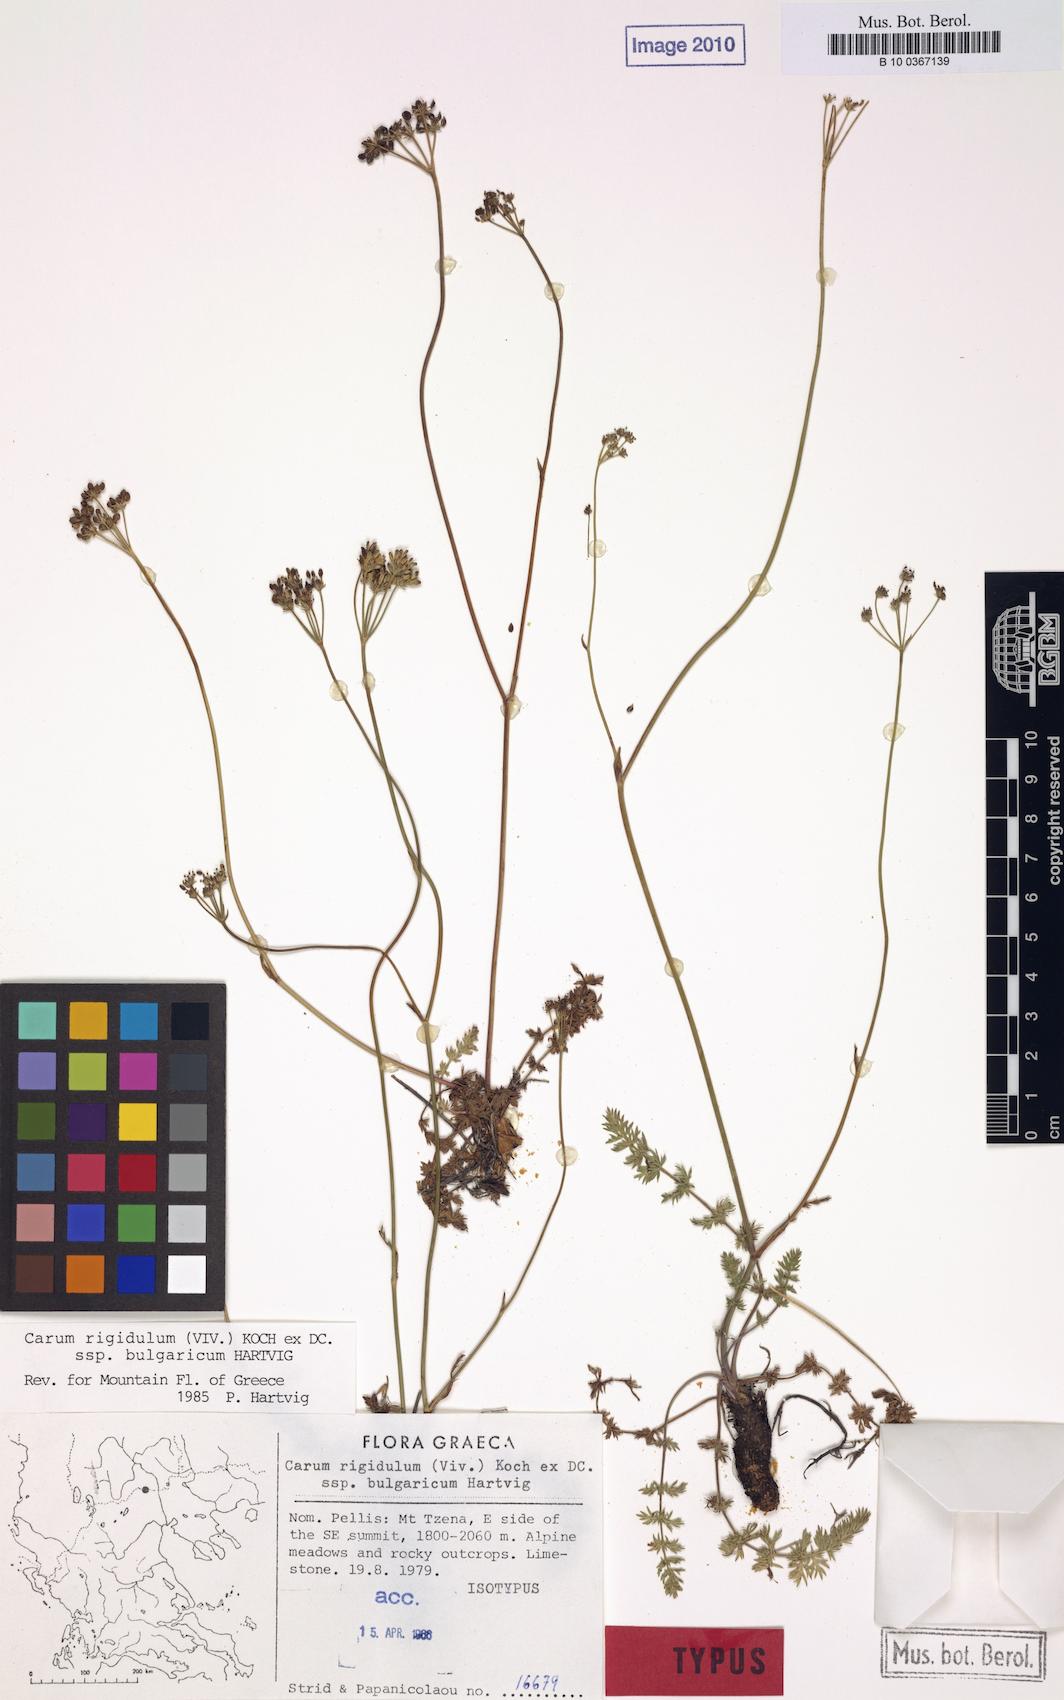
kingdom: Plantae
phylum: Tracheophyta
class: Magnoliopsida
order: Apiales
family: Apiaceae
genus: Carum
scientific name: Carum appuanum
